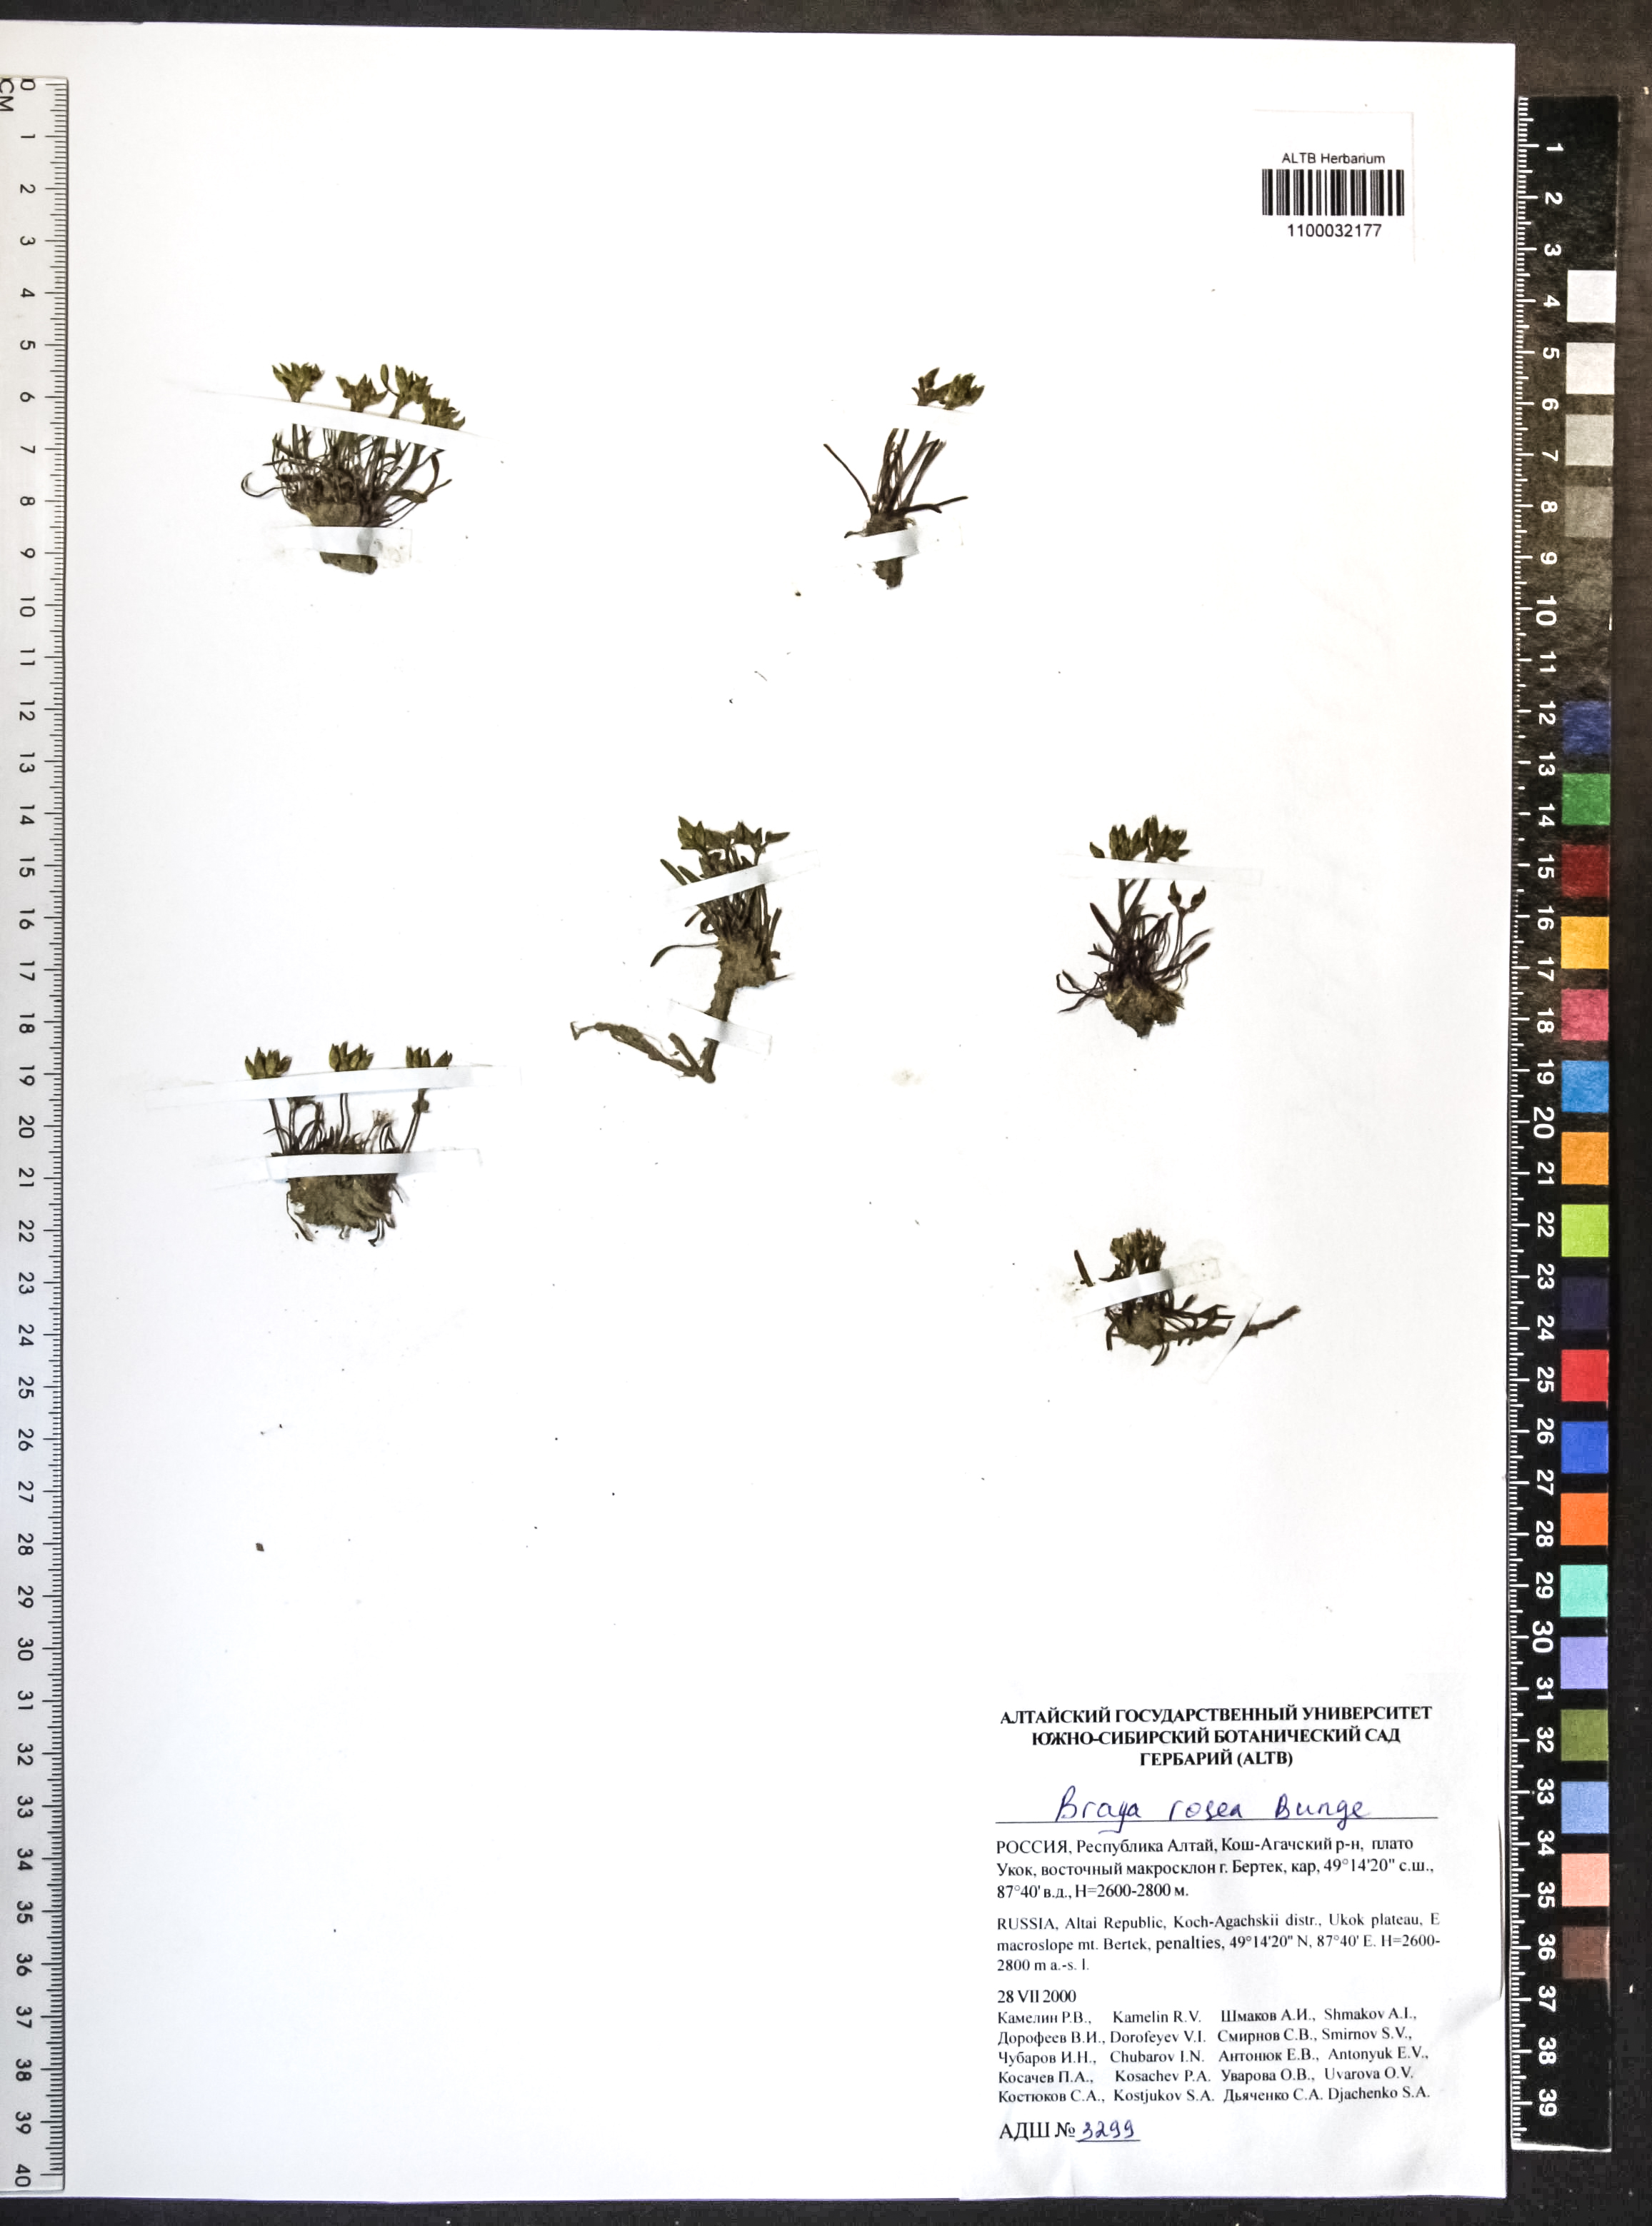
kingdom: Plantae
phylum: Tracheophyta
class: Magnoliopsida
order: Brassicales
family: Brassicaceae
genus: Braya
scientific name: Braya rosea
